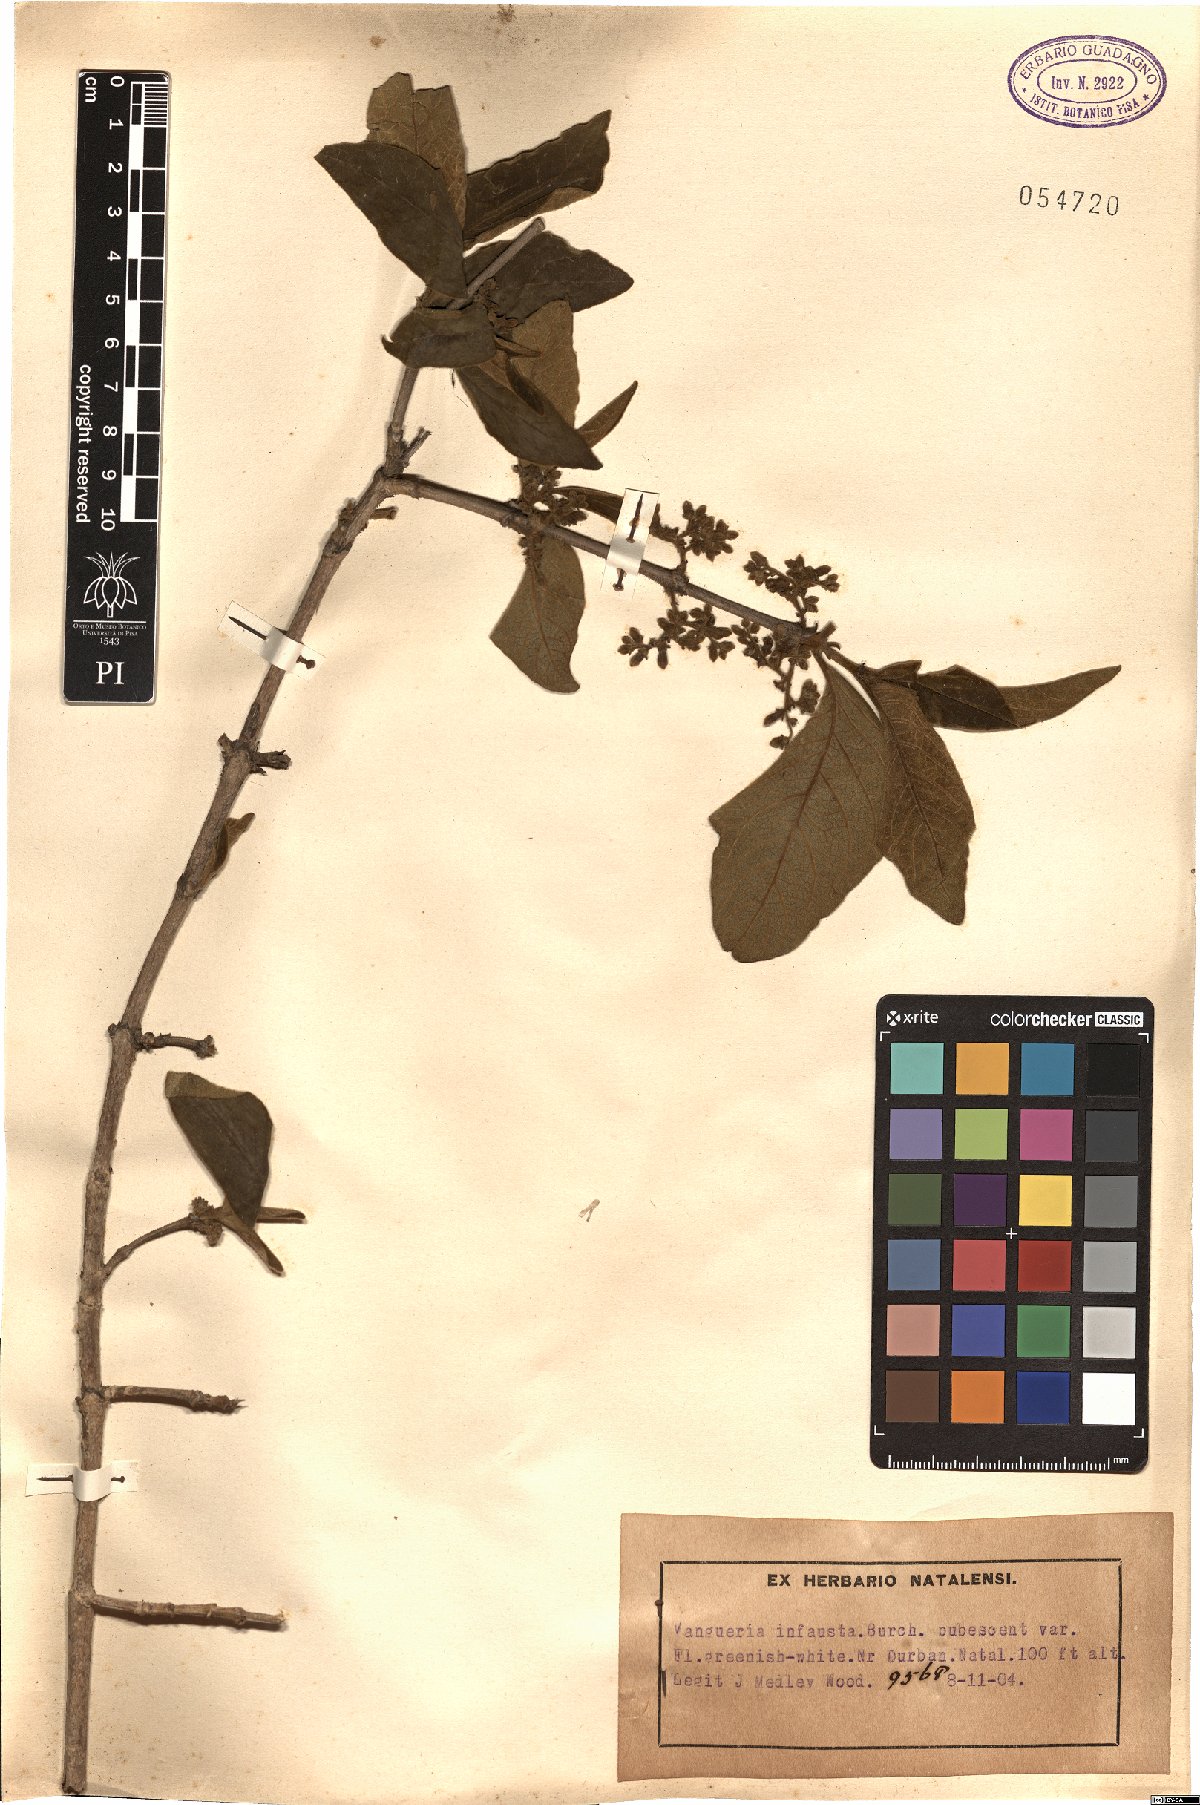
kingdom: Plantae
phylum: Tracheophyta
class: Magnoliopsida
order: Gentianales
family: Rubiaceae
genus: Vangueria
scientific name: Vangueria infausta
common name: Medlar
